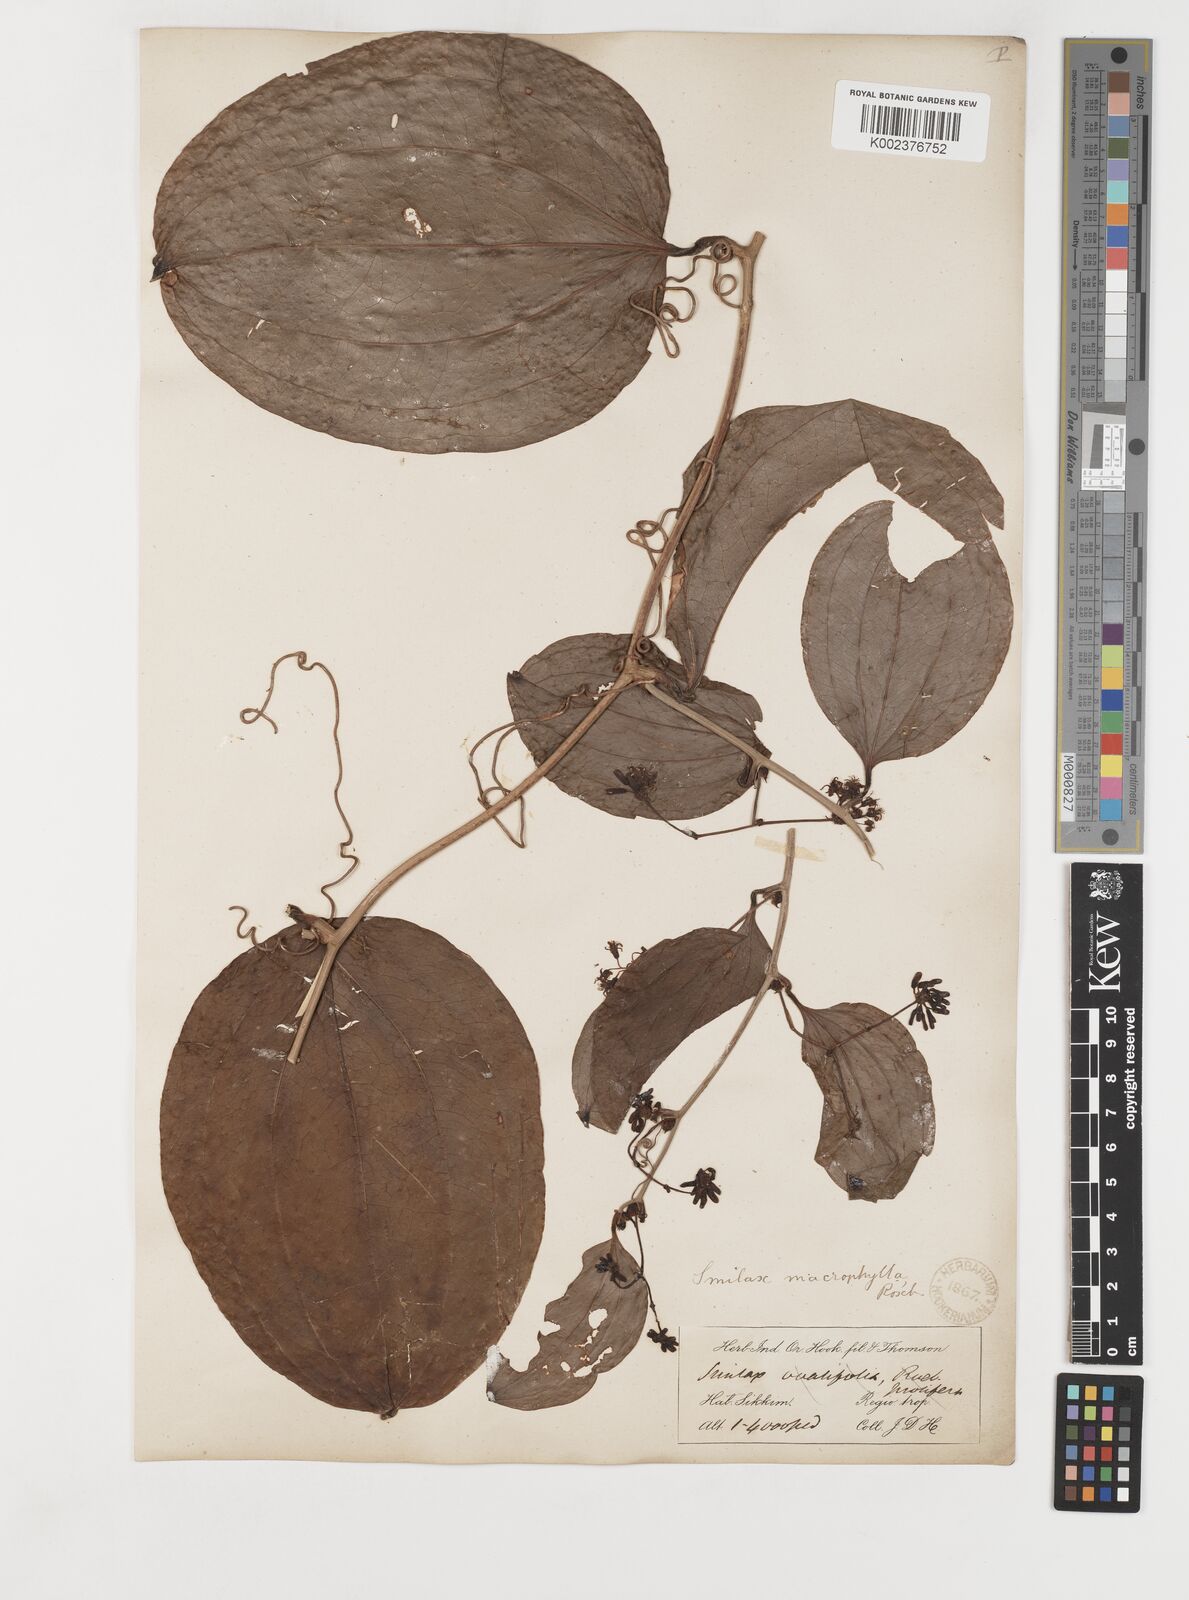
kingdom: Plantae
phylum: Tracheophyta
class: Liliopsida
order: Liliales
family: Smilacaceae
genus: Smilax
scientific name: Smilax ovalifolia
